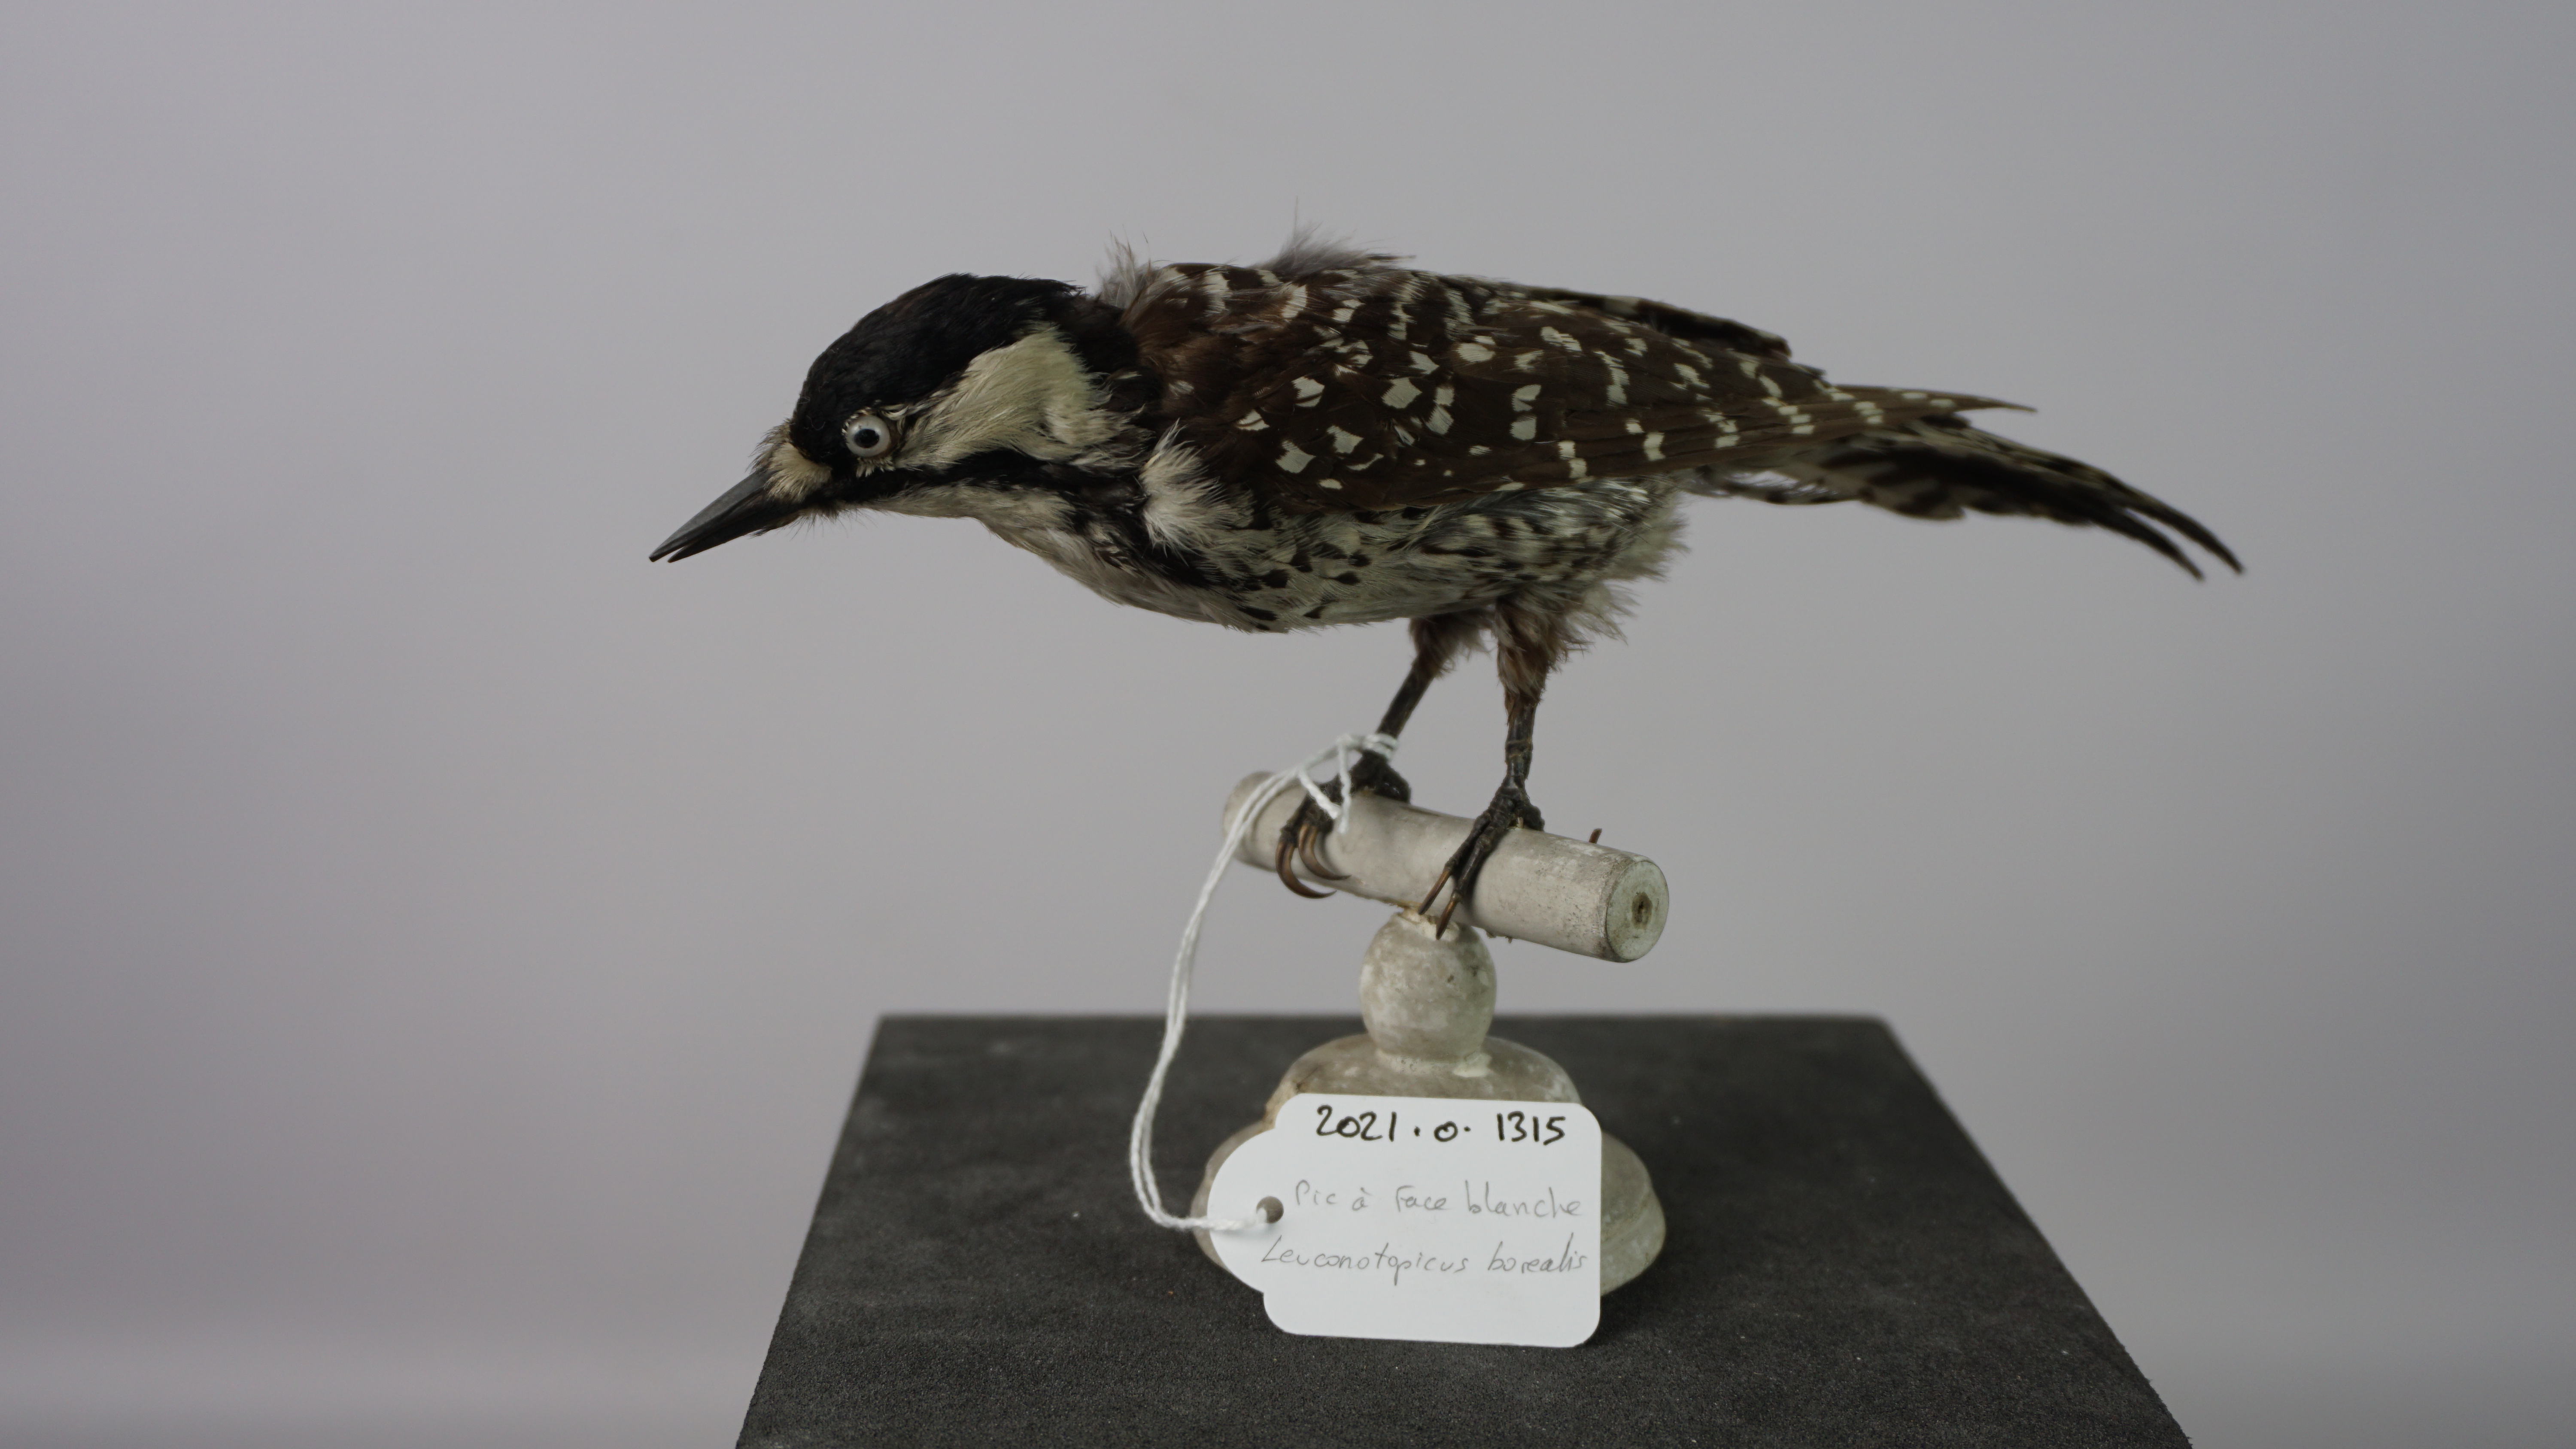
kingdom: Animalia
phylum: Chordata
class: Aves
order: Piciformes
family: Picidae
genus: Leuconotopicus
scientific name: Leuconotopicus borealis
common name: Red-cockaded woodpecker
